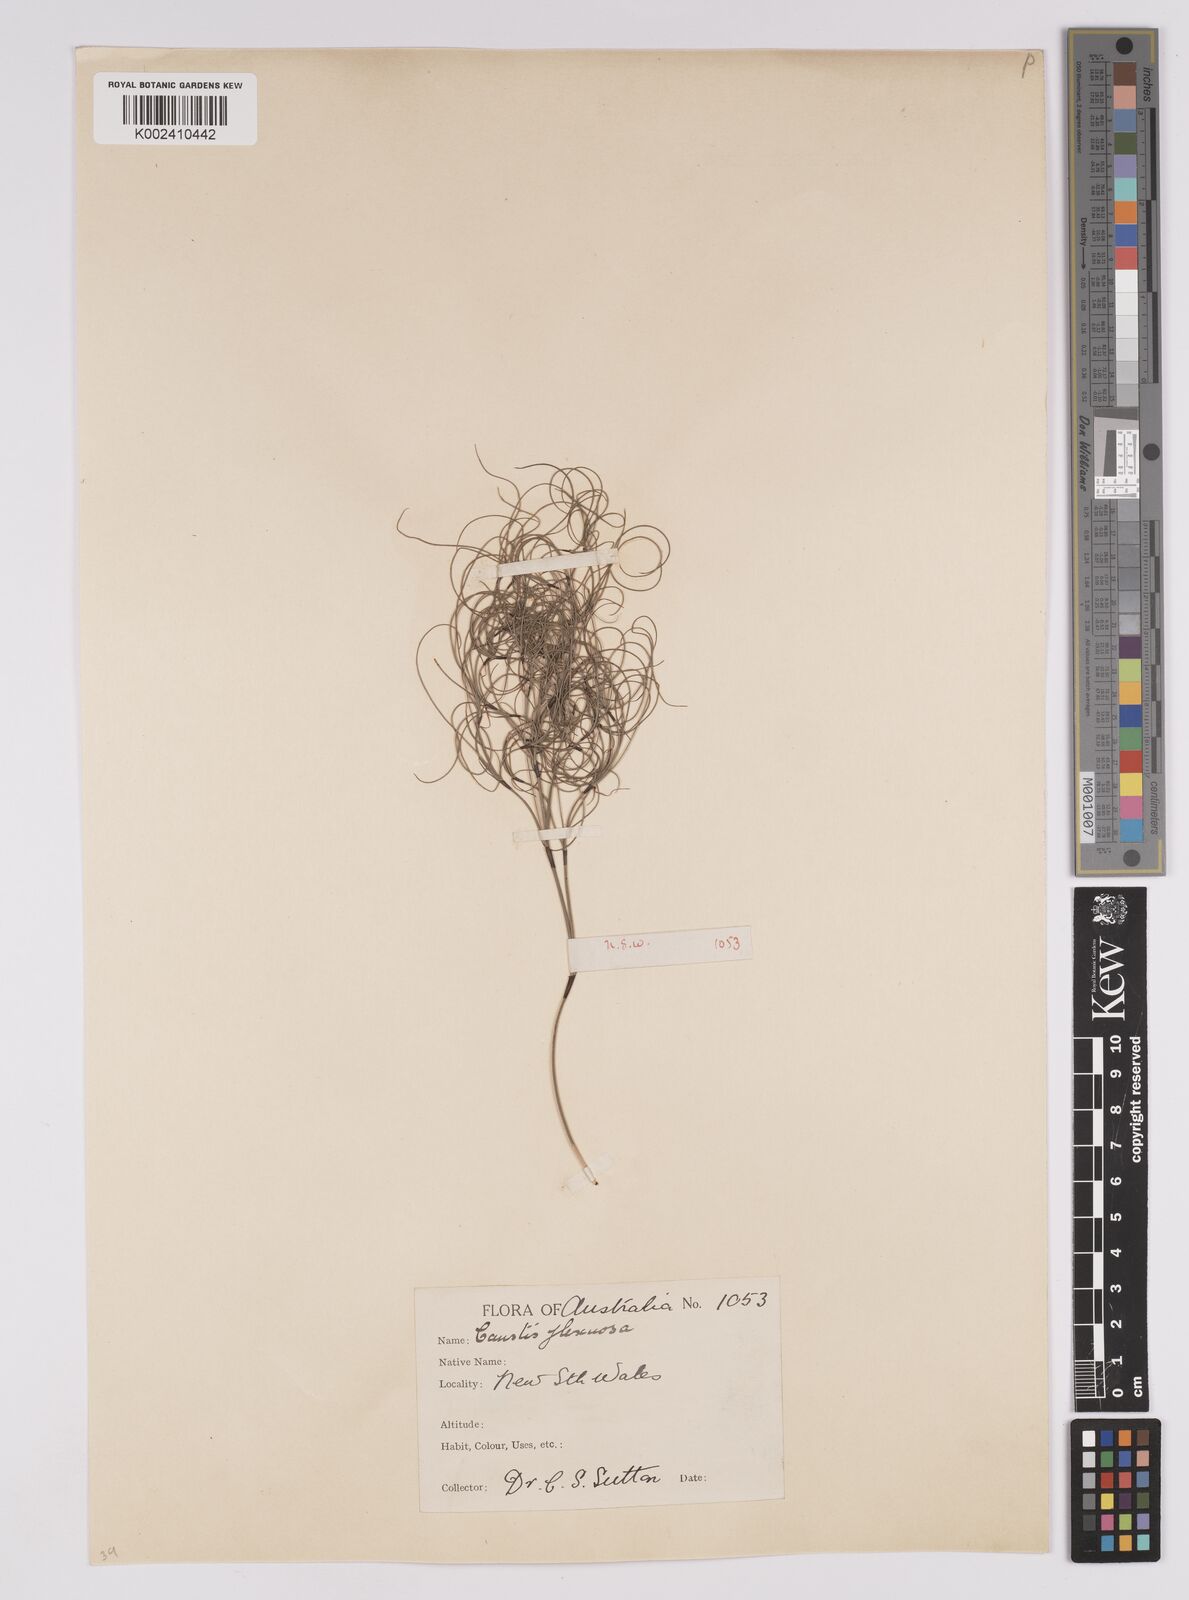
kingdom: Plantae
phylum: Tracheophyta
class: Liliopsida
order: Poales
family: Cyperaceae
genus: Caustis
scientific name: Caustis flexuosa
